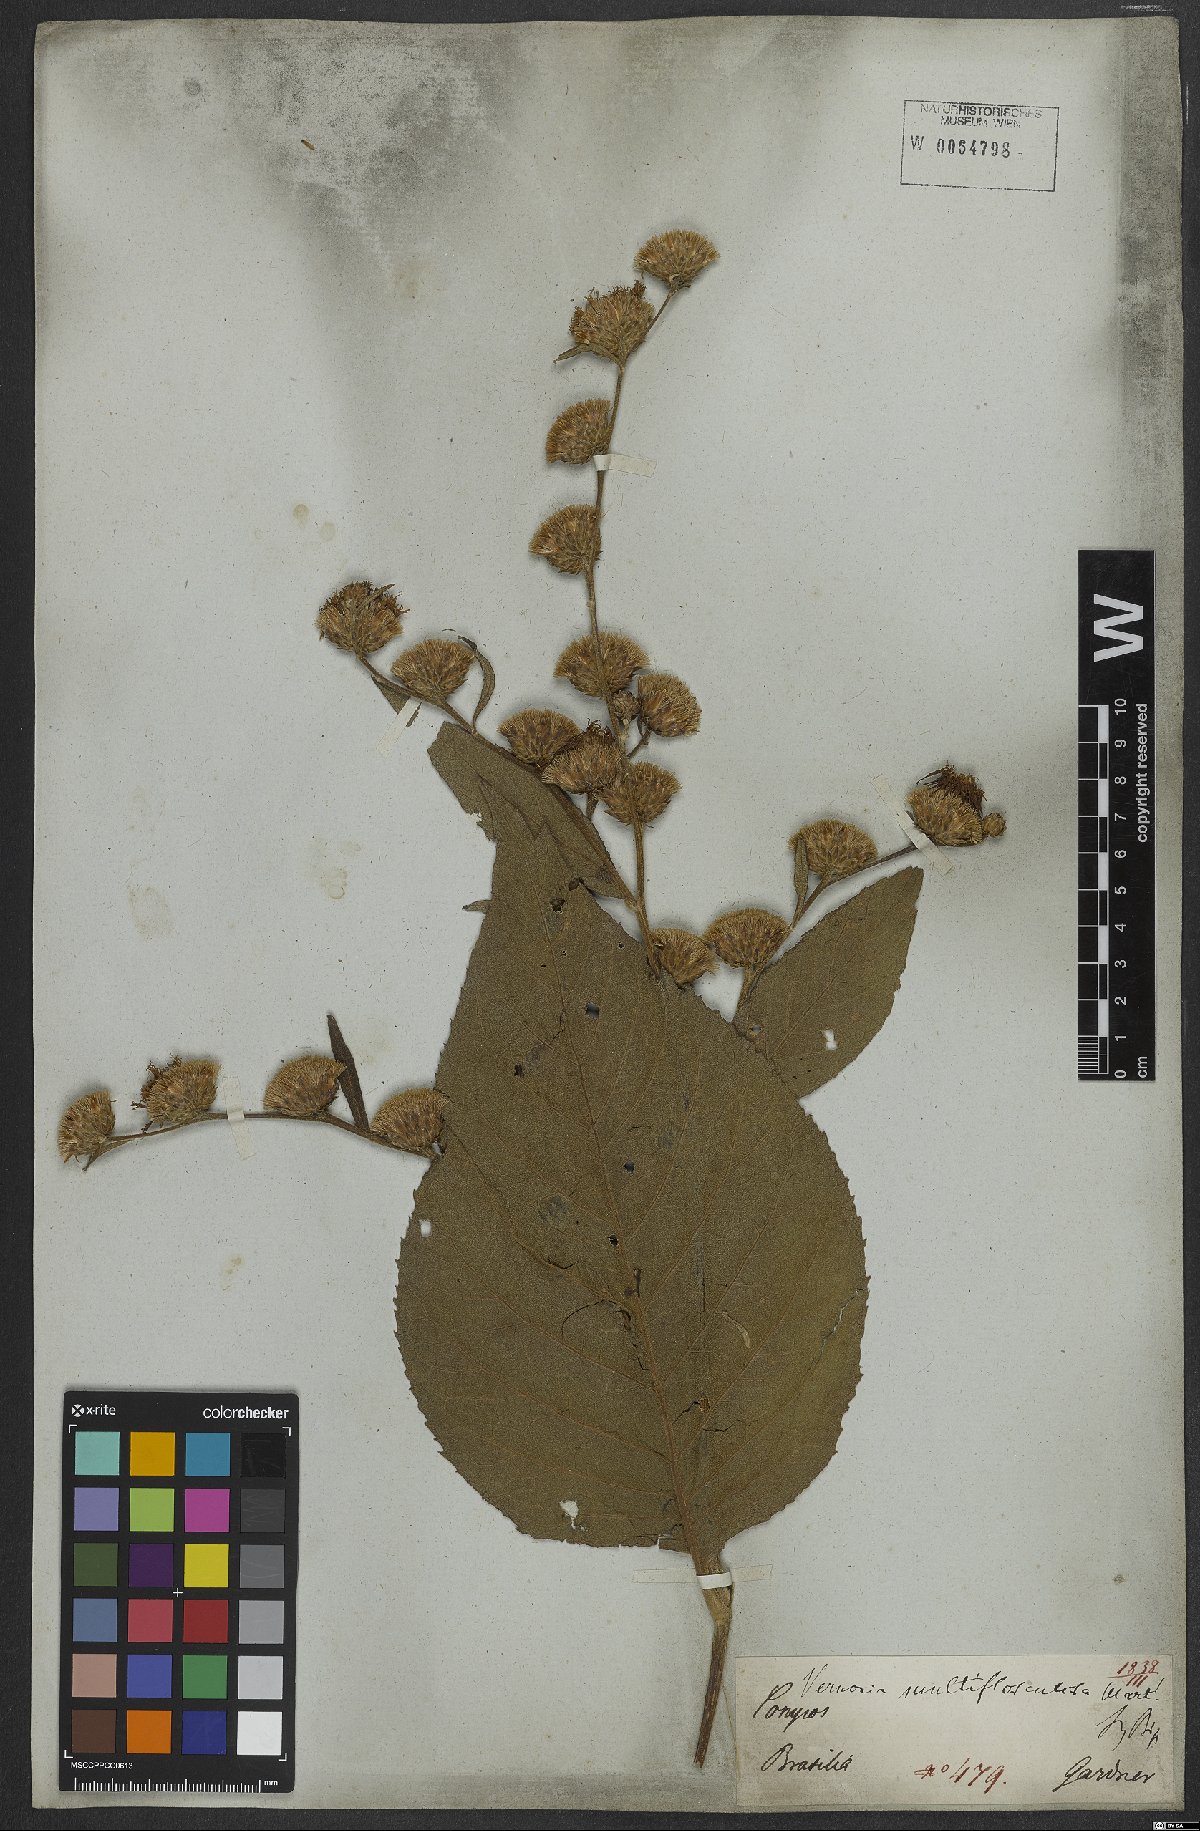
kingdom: Plantae
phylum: Tracheophyta
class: Magnoliopsida
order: Asterales
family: Asteraceae
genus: Gymnanthemum
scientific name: Gymnanthemum theophrastifolium
